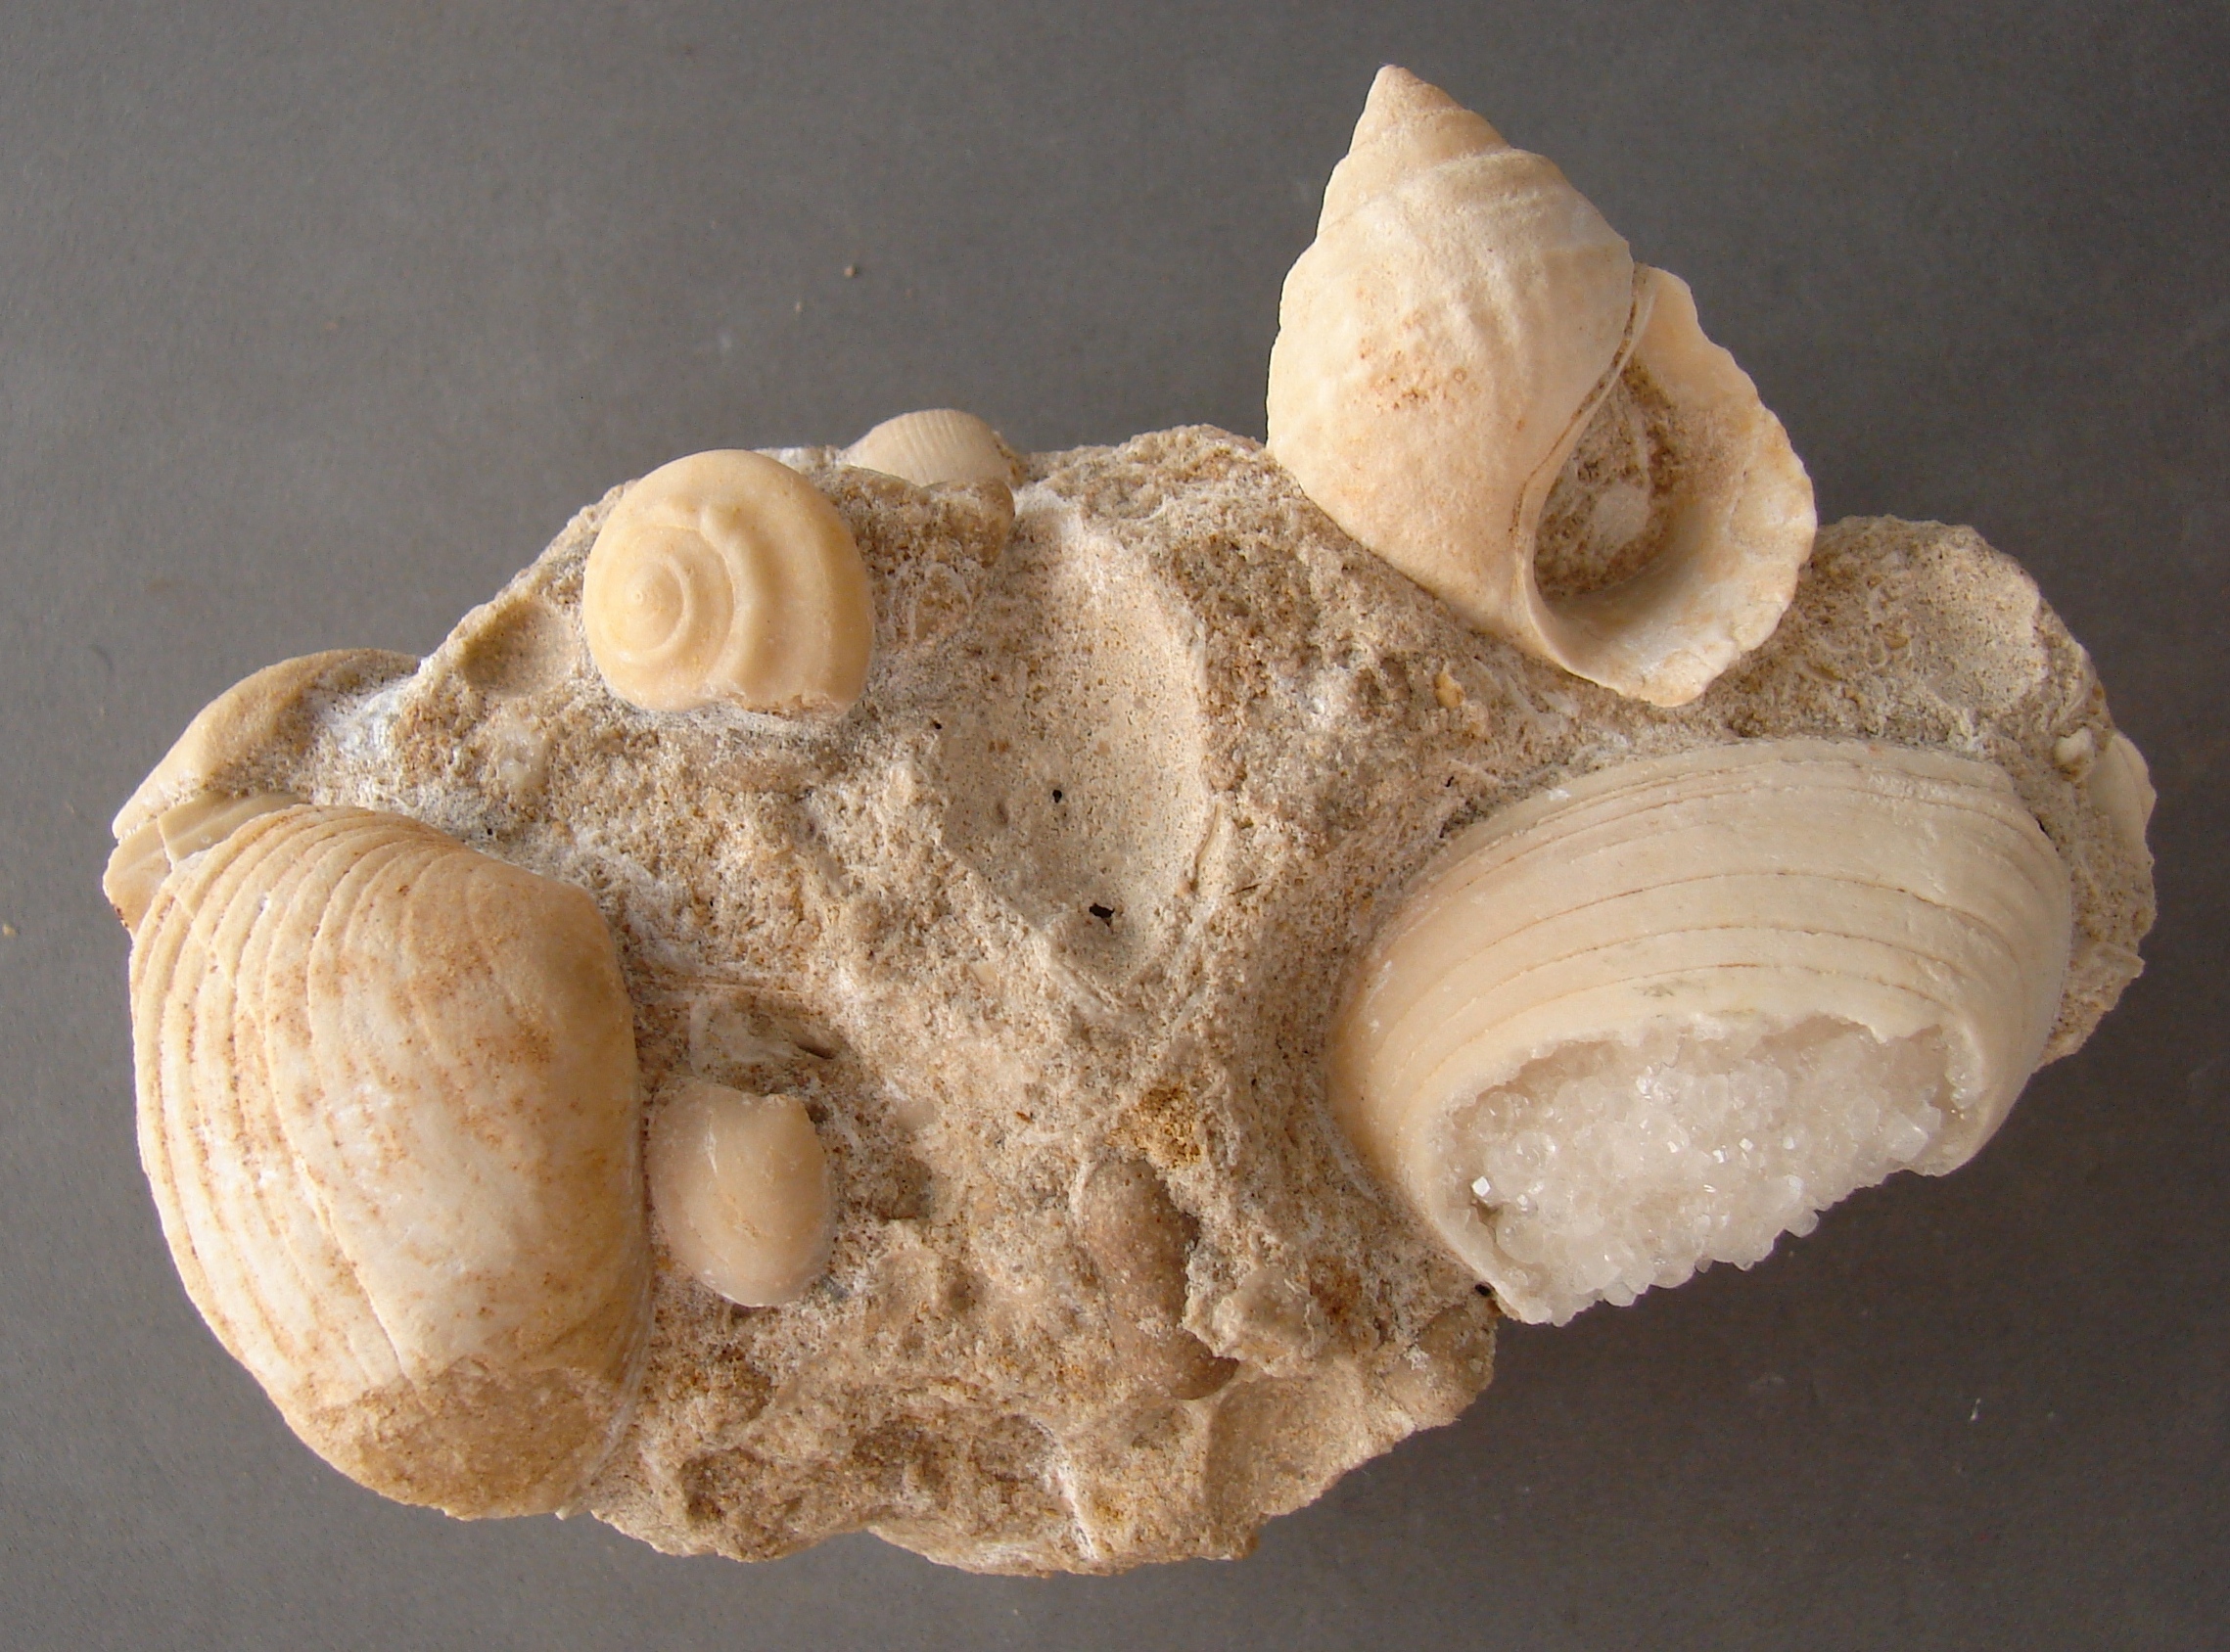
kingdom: Animalia
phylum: Mollusca
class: Gastropoda
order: Neogastropoda
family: Purpurinidae
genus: Microschiza
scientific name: Microschiza Turbo semiornatus
